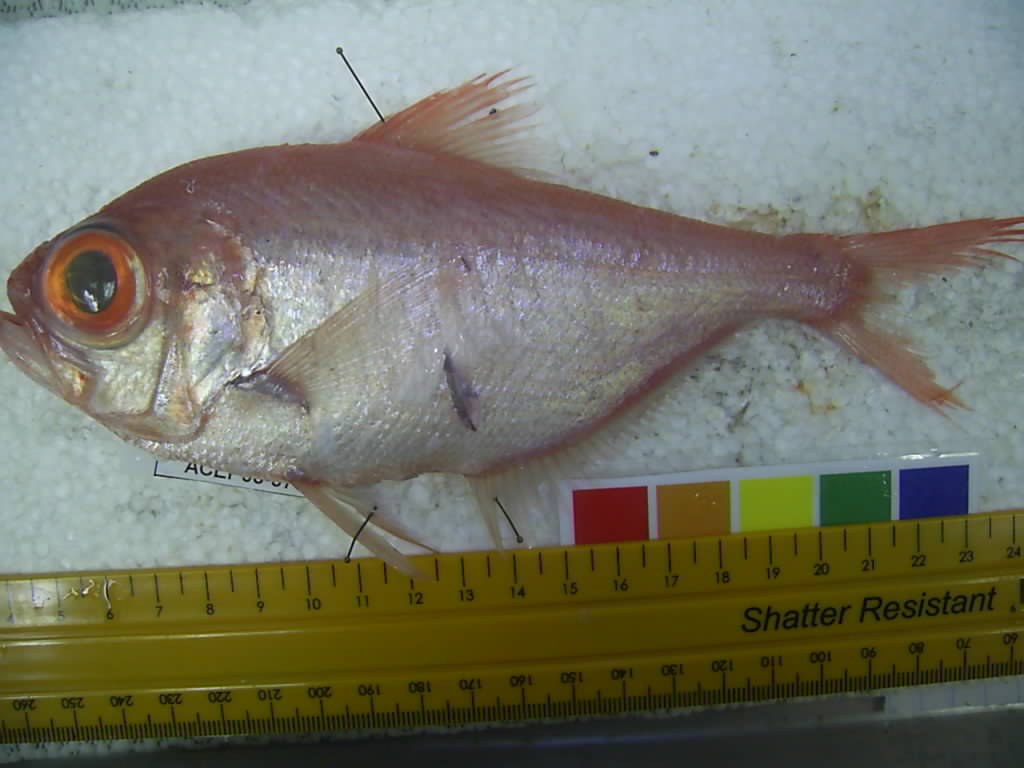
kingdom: Animalia
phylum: Chordata
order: Beryciformes
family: Berycidae
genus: Beryx
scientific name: Beryx splendens
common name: Lowe's beryx
